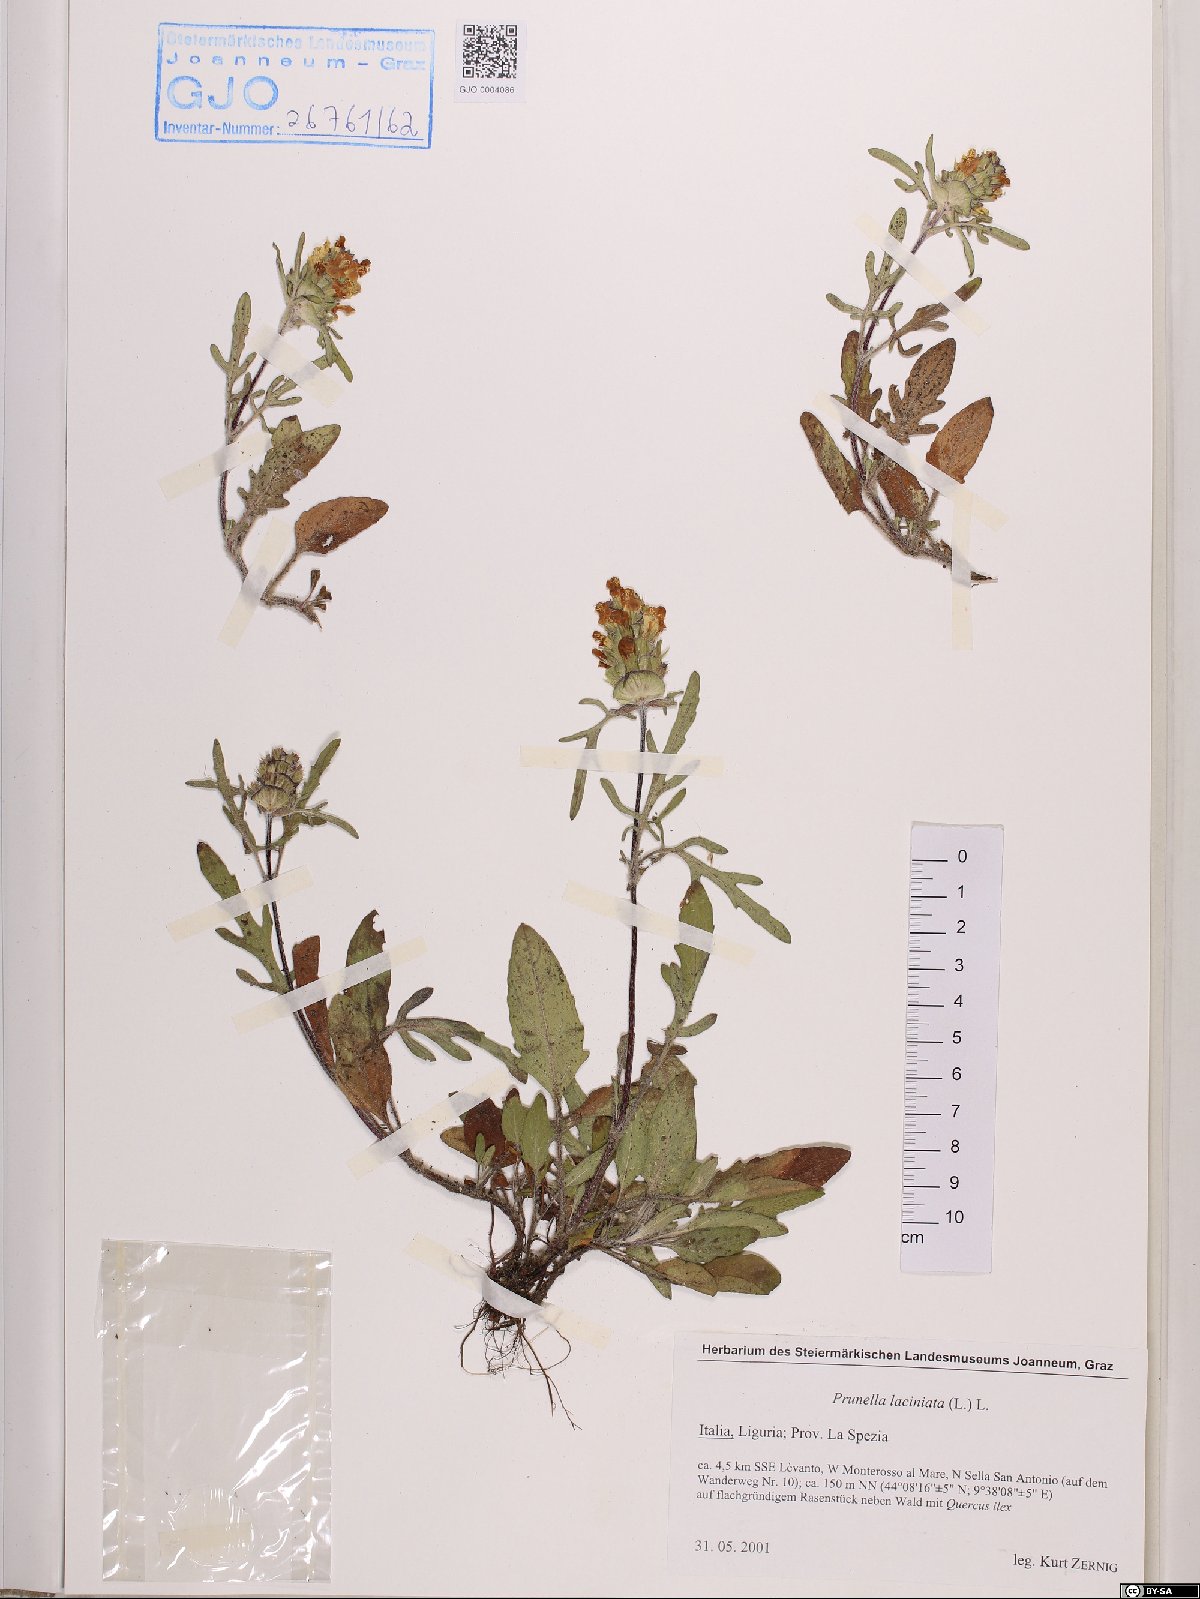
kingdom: Plantae
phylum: Tracheophyta
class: Magnoliopsida
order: Lamiales
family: Lamiaceae
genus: Prunella
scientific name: Prunella laciniata
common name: Cut-leaved selfheal
